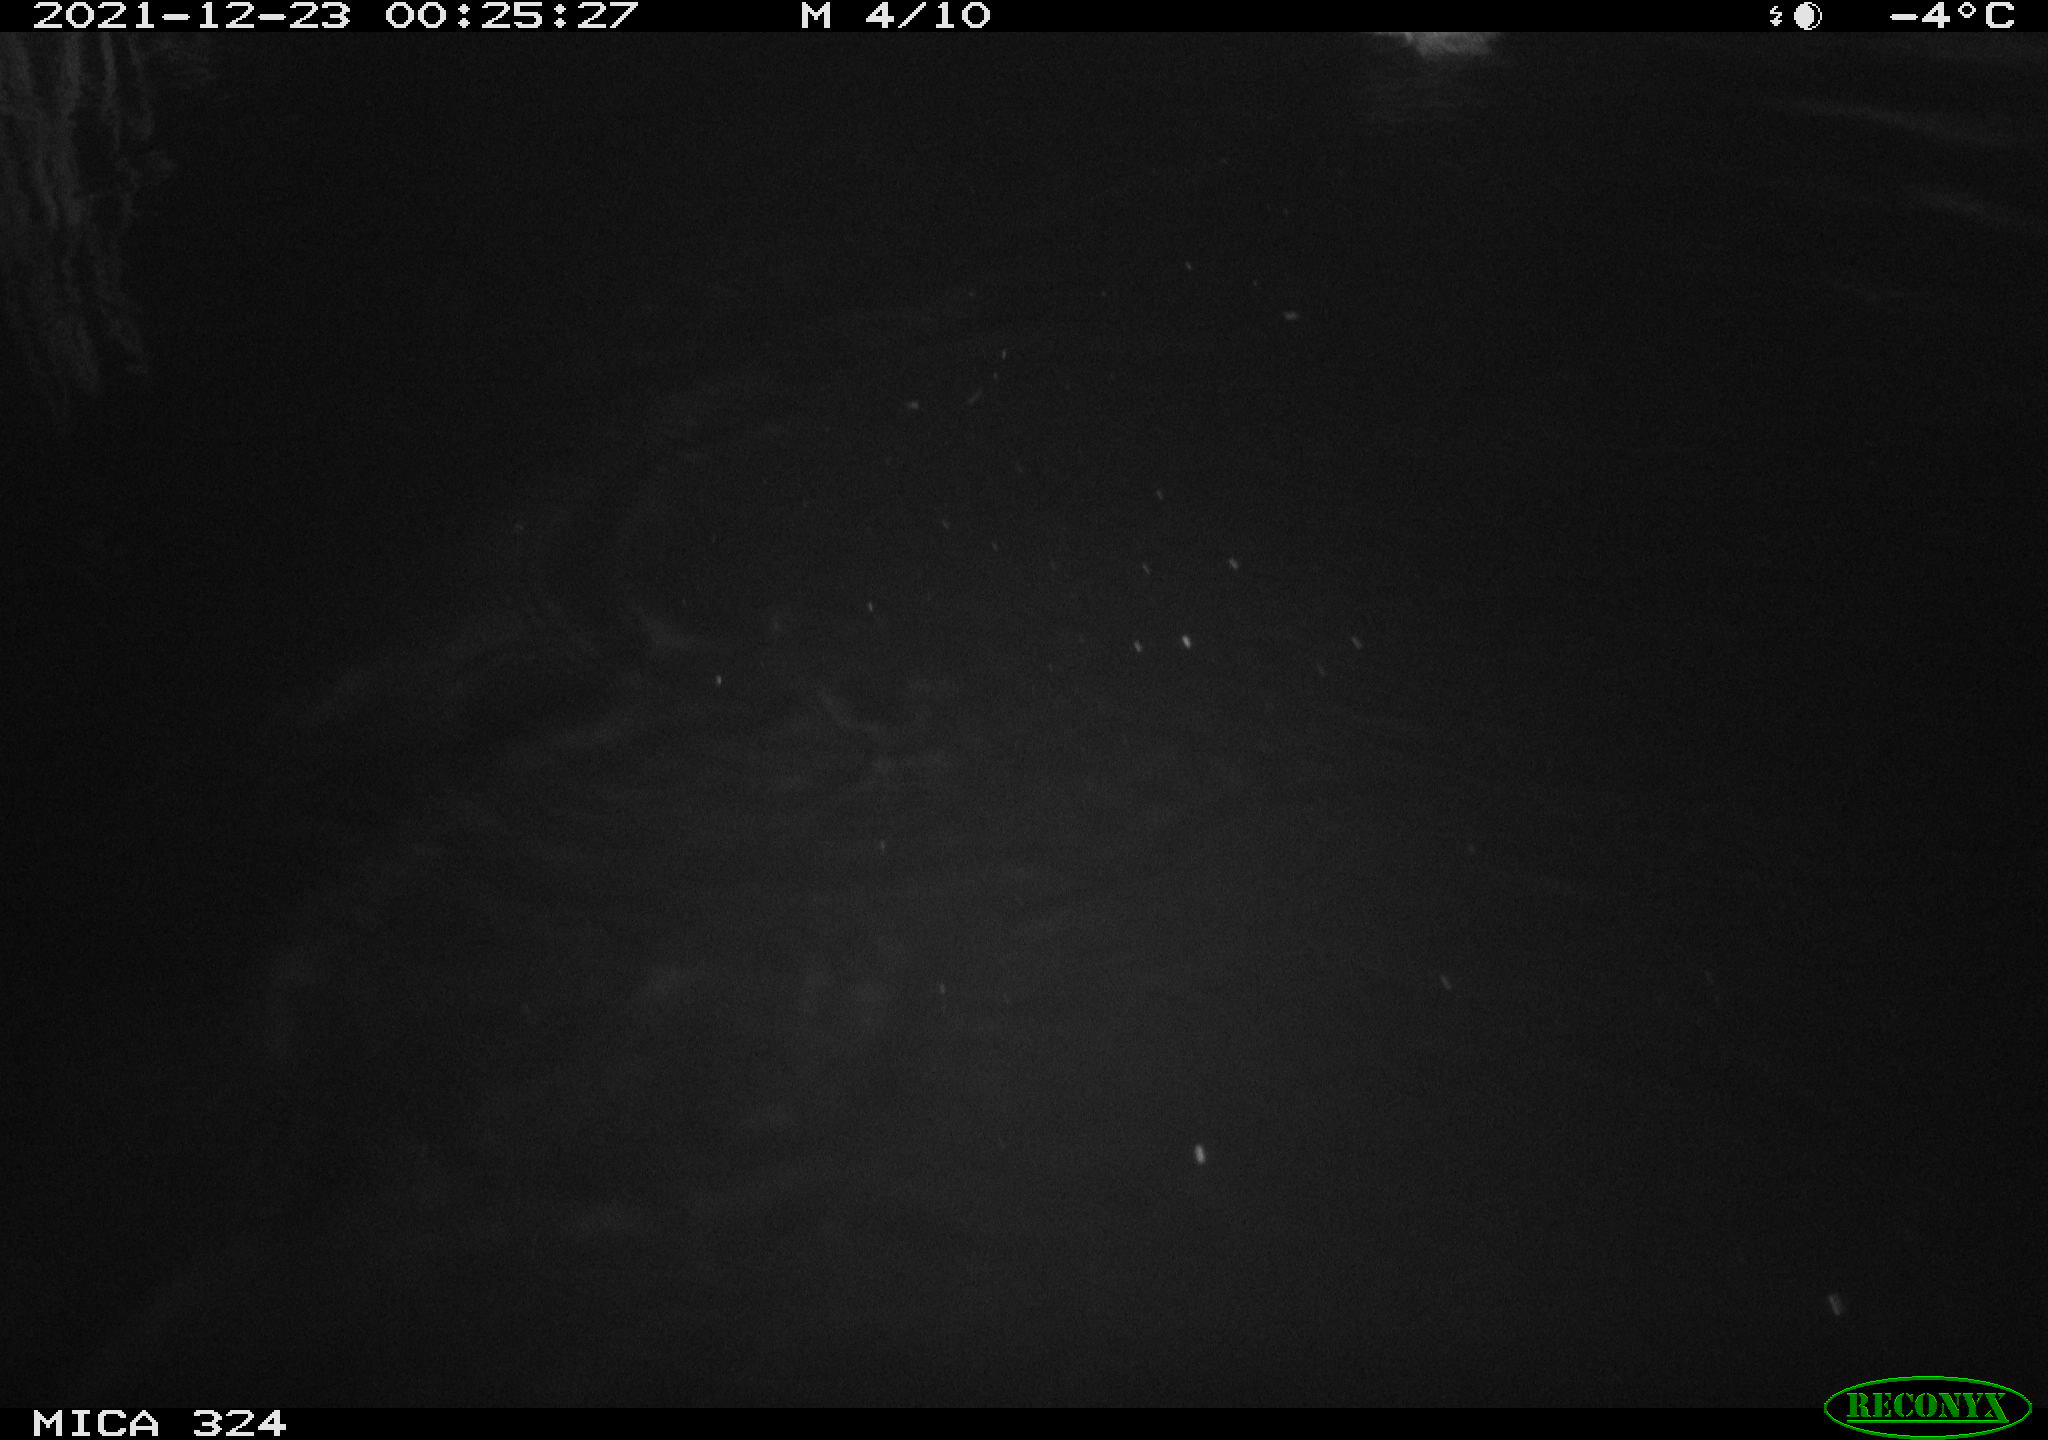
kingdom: Animalia
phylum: Chordata
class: Aves
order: Anseriformes
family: Anatidae
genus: Anas
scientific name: Anas platyrhynchos
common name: Mallard
